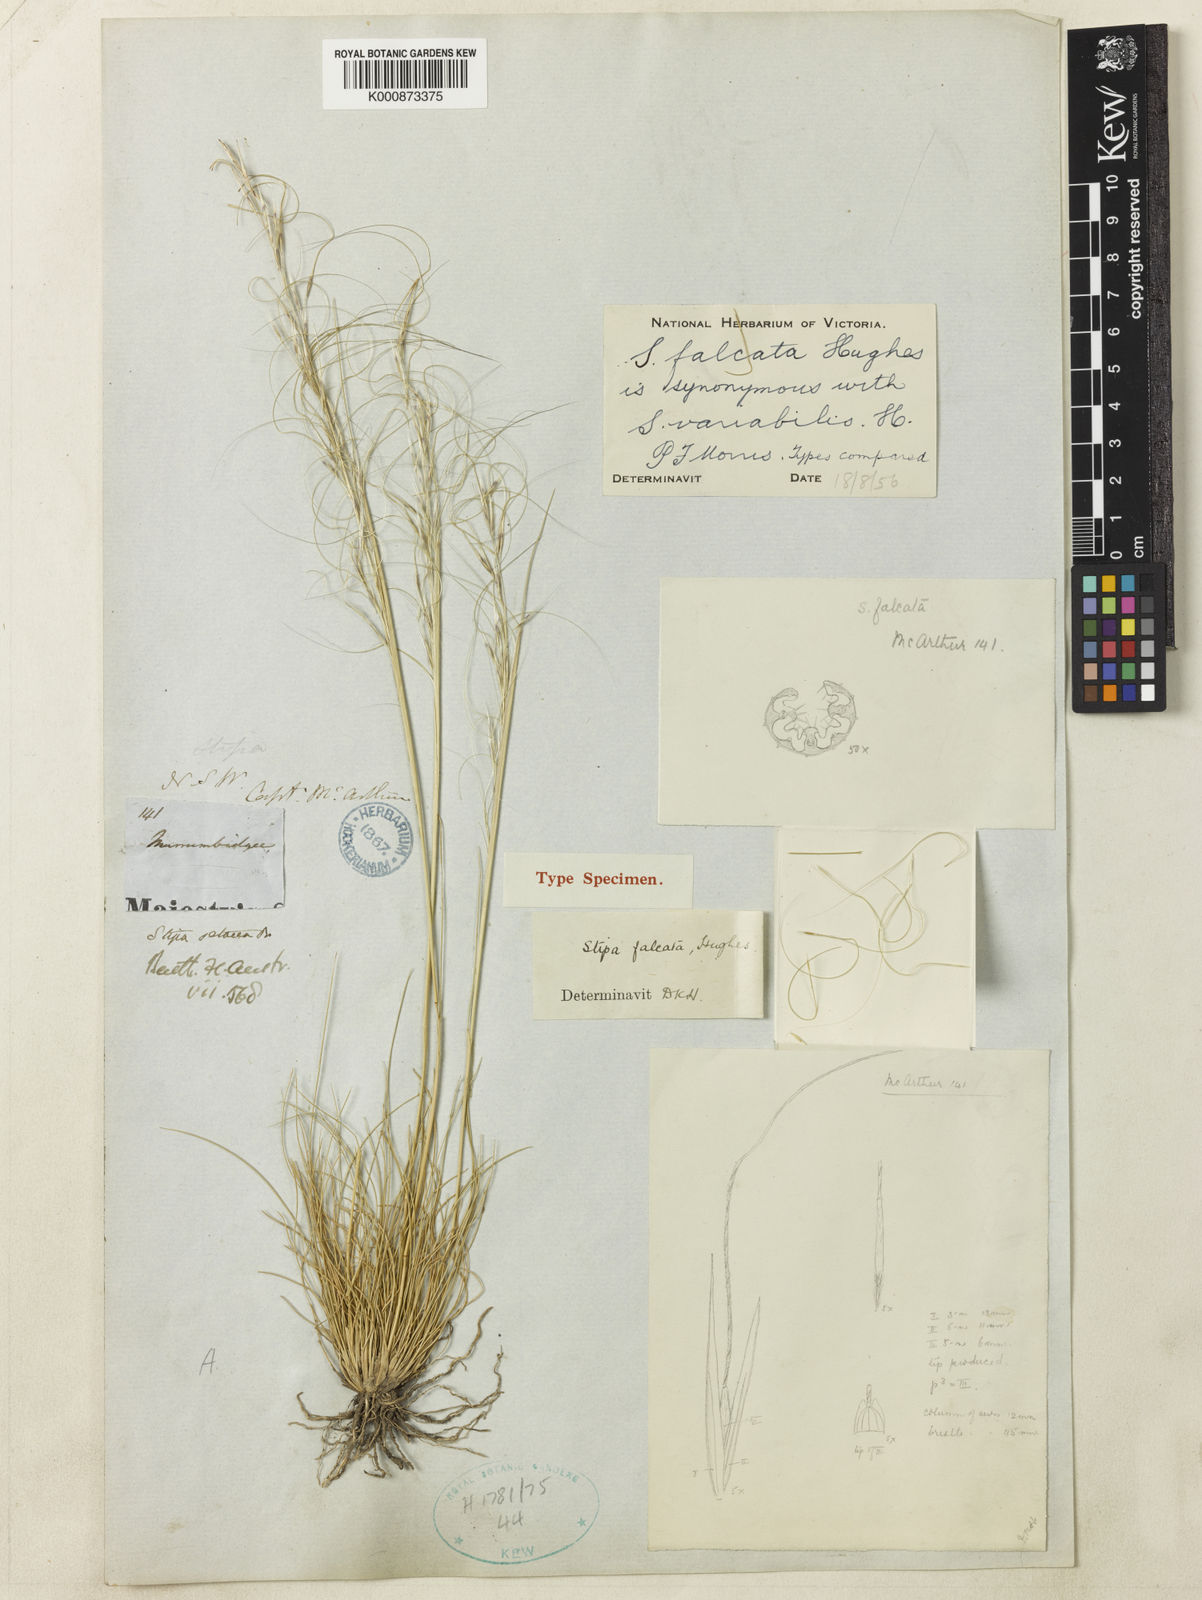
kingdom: Plantae
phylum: Tracheophyta
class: Liliopsida
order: Poales
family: Poaceae
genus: Austrostipa
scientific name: Austrostipa scabra
